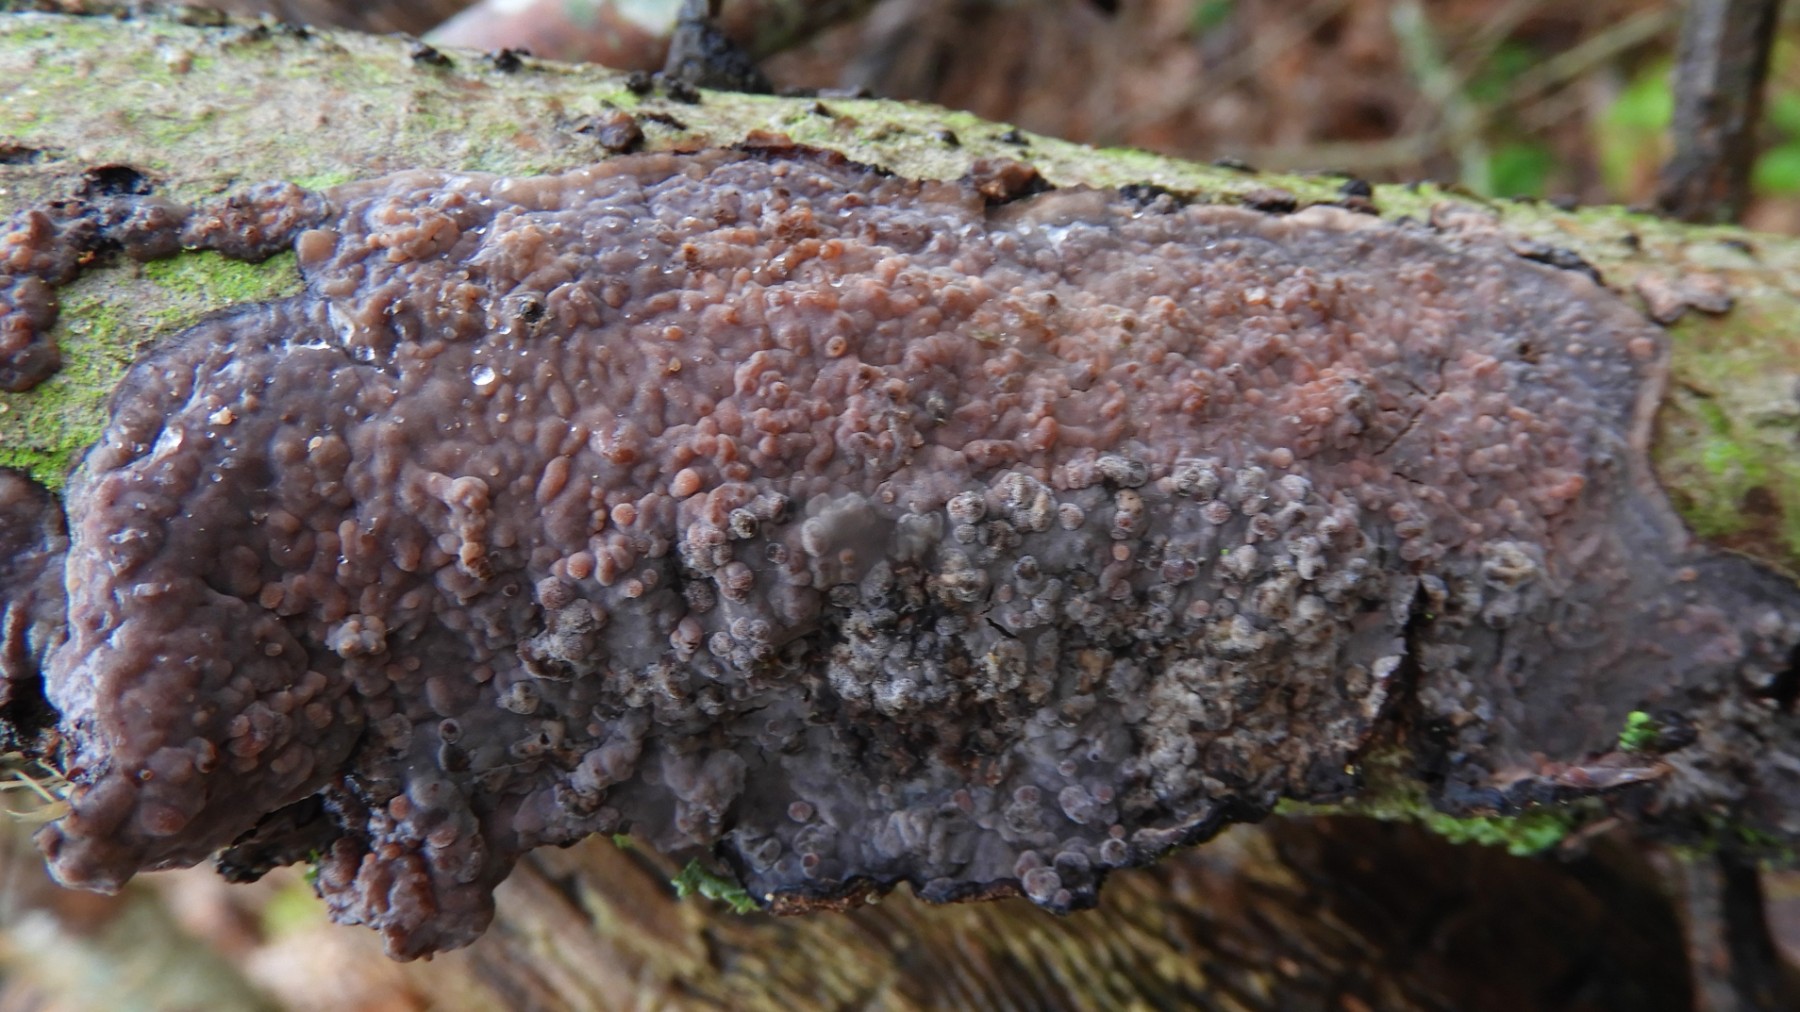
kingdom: Fungi
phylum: Basidiomycota
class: Agaricomycetes
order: Russulales
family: Peniophoraceae
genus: Peniophora
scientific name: Peniophora quercina
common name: ege-voksskind
